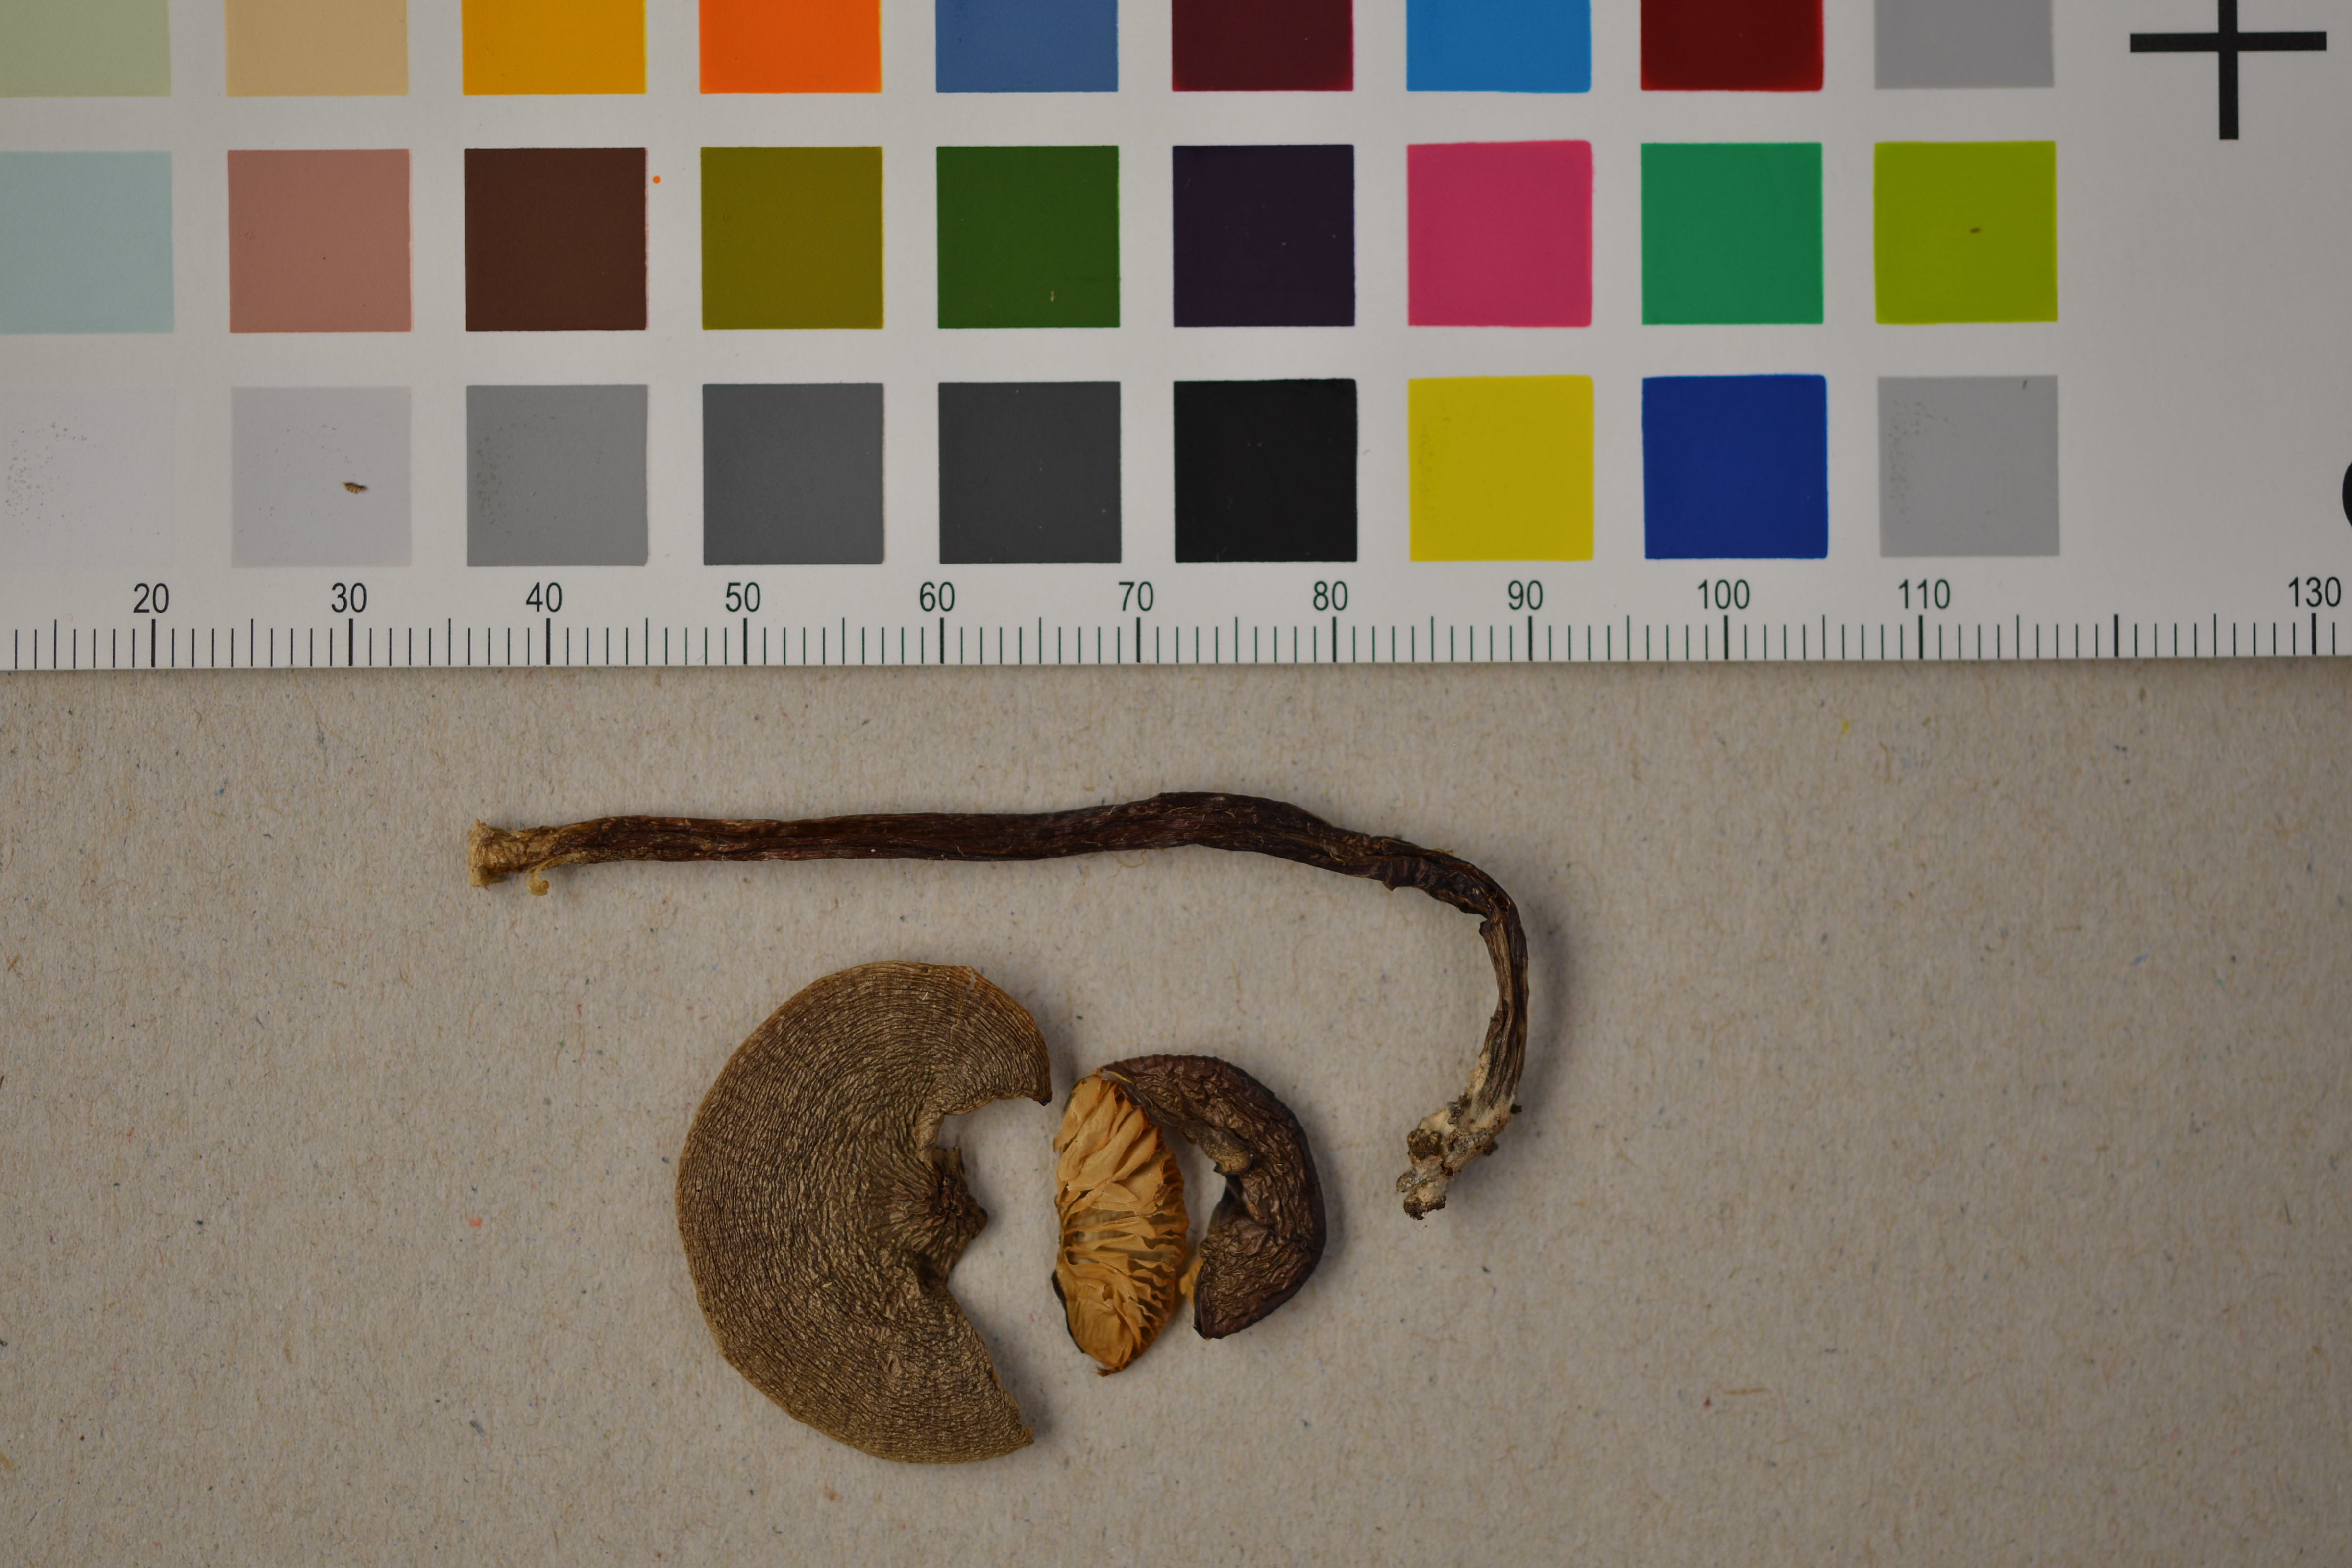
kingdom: Fungi
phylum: Basidiomycota
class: Agaricomycetes
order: Agaricales
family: Macrocystidiaceae
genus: Macrocystidia
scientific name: Macrocystidia cucumis
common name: Cucumber cap
